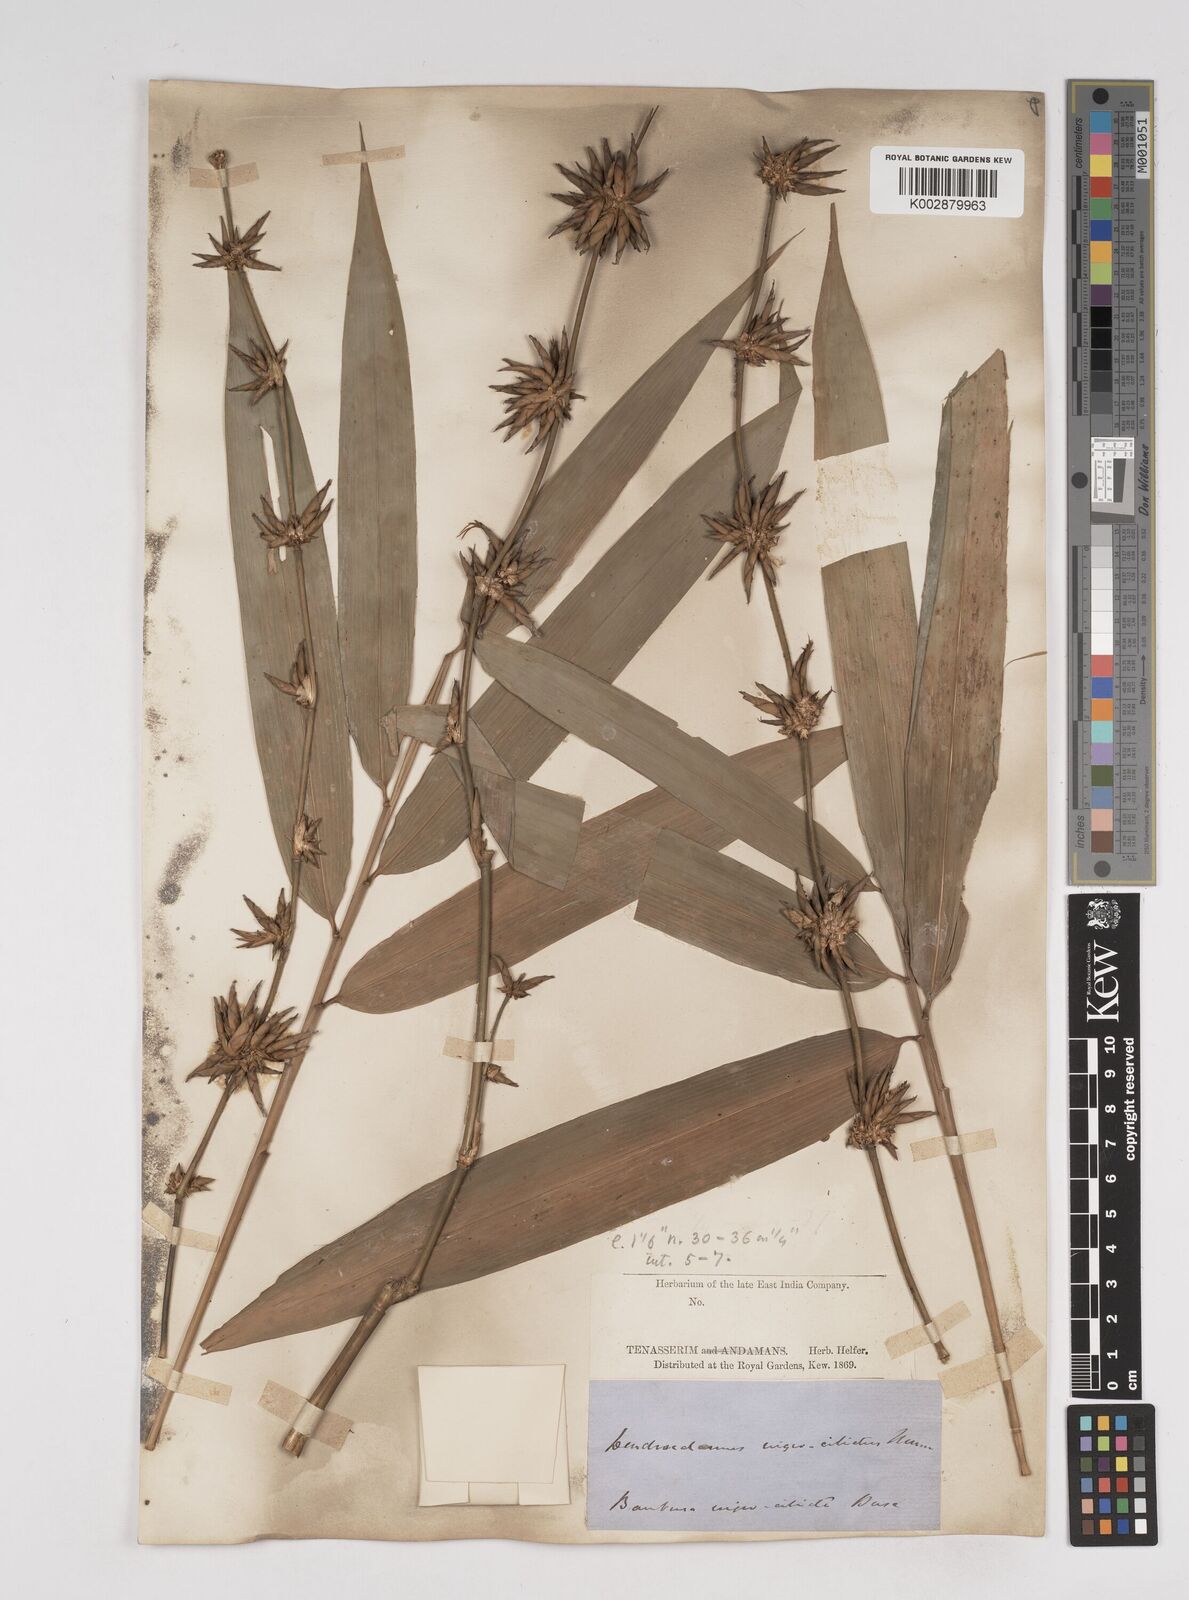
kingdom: Plantae
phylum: Tracheophyta
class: Liliopsida
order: Poales
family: Poaceae
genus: Gigantochloa
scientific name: Gigantochloa nigrociliata
